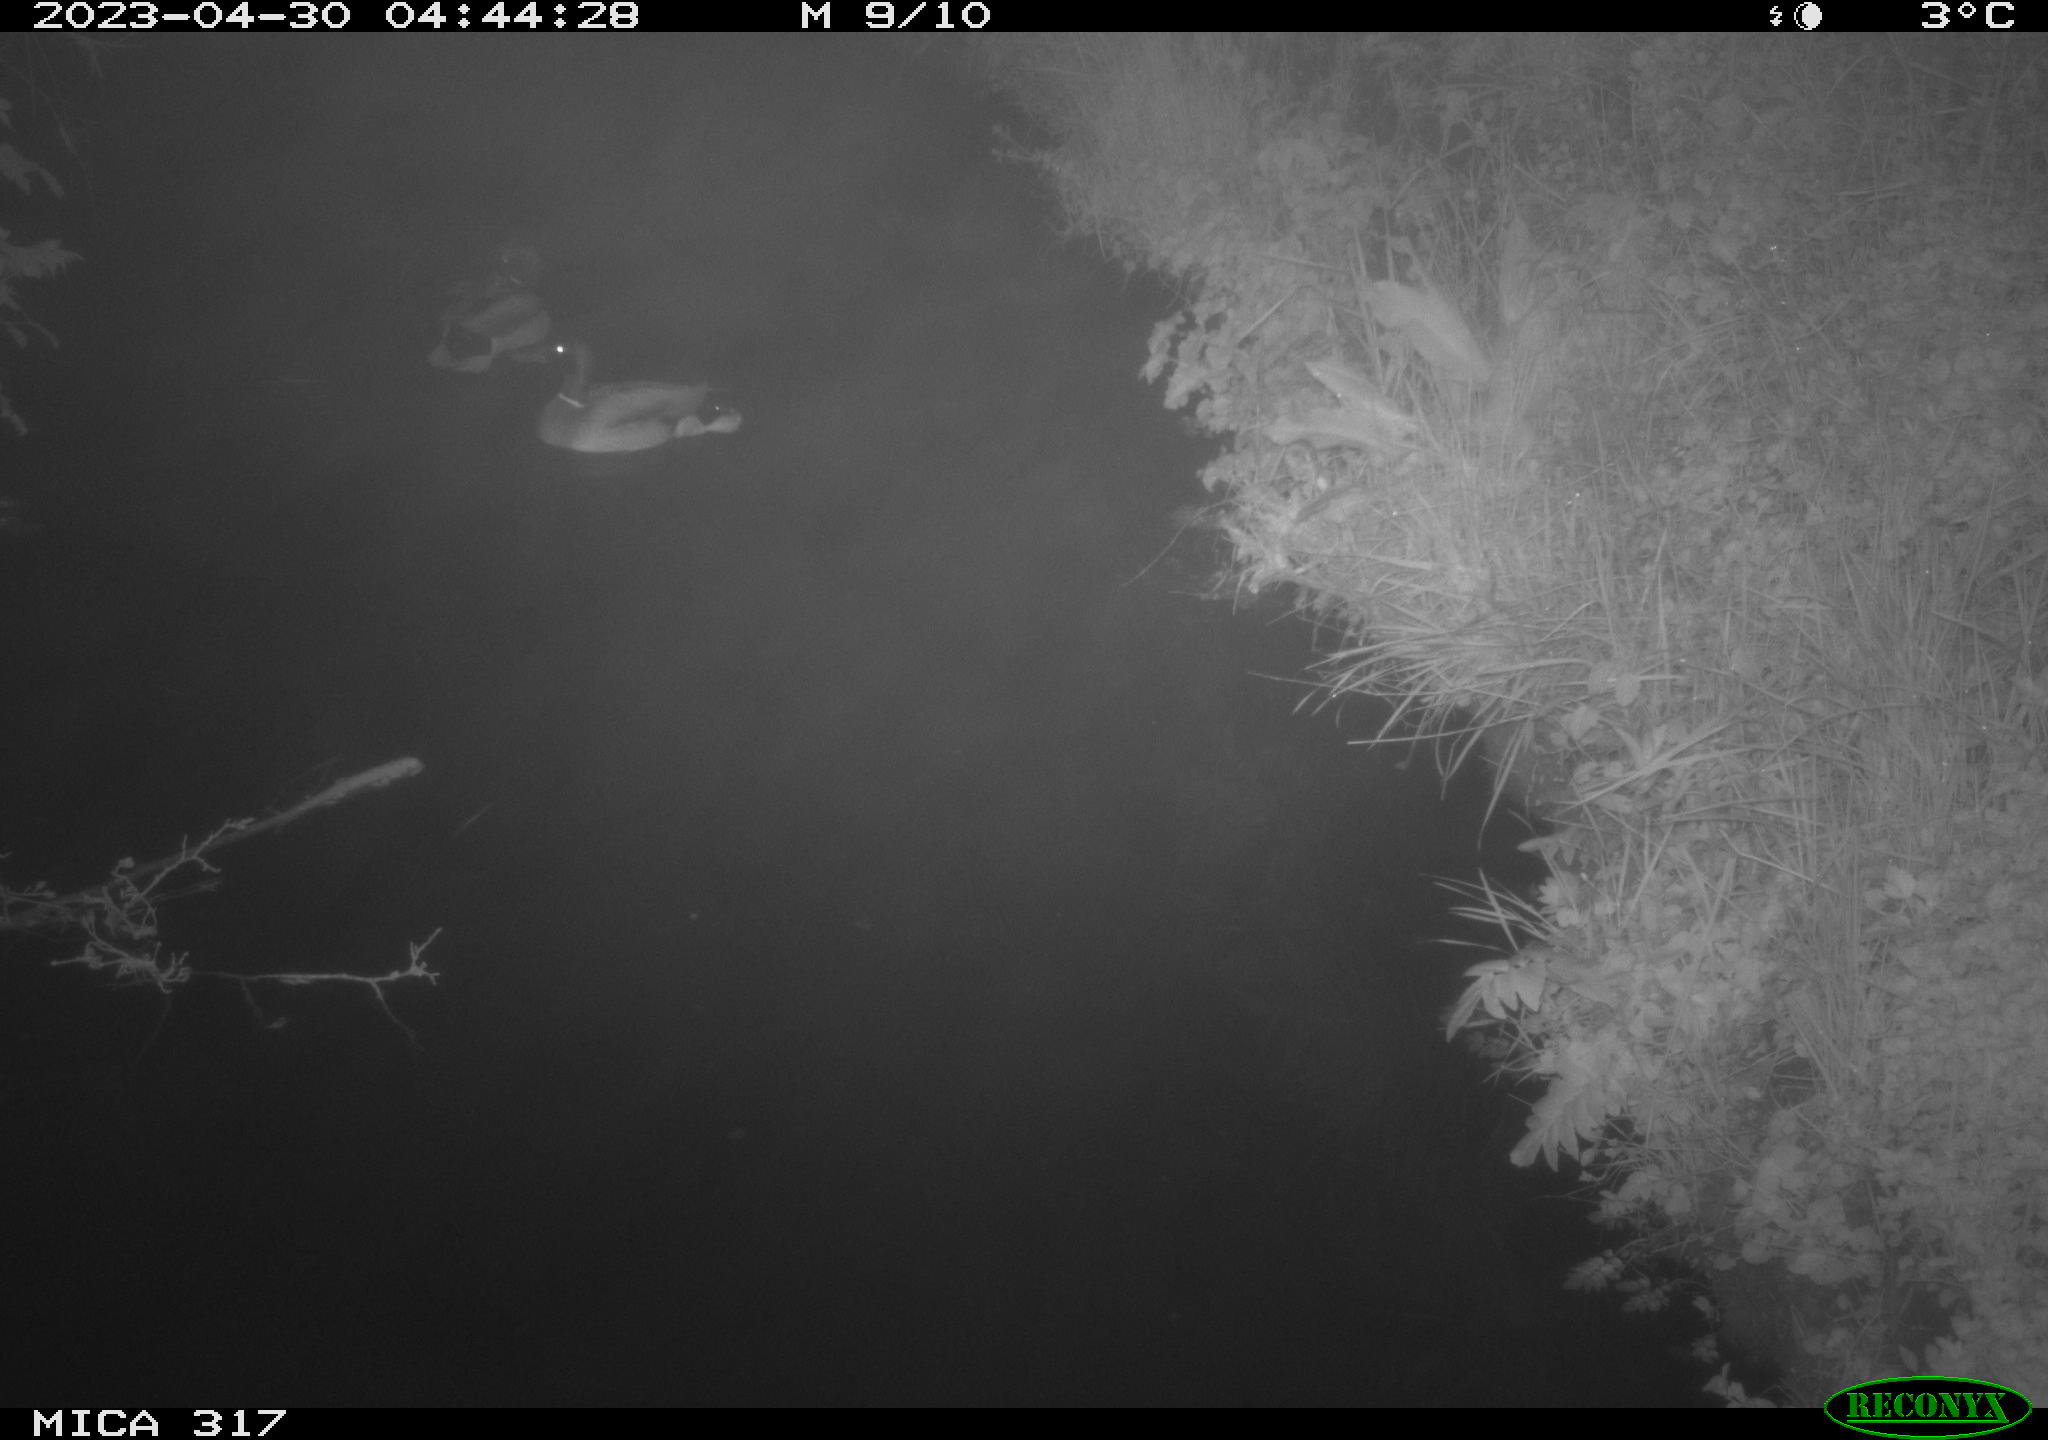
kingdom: Animalia
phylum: Chordata
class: Aves
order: Anseriformes
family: Anatidae
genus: Anas
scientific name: Anas
